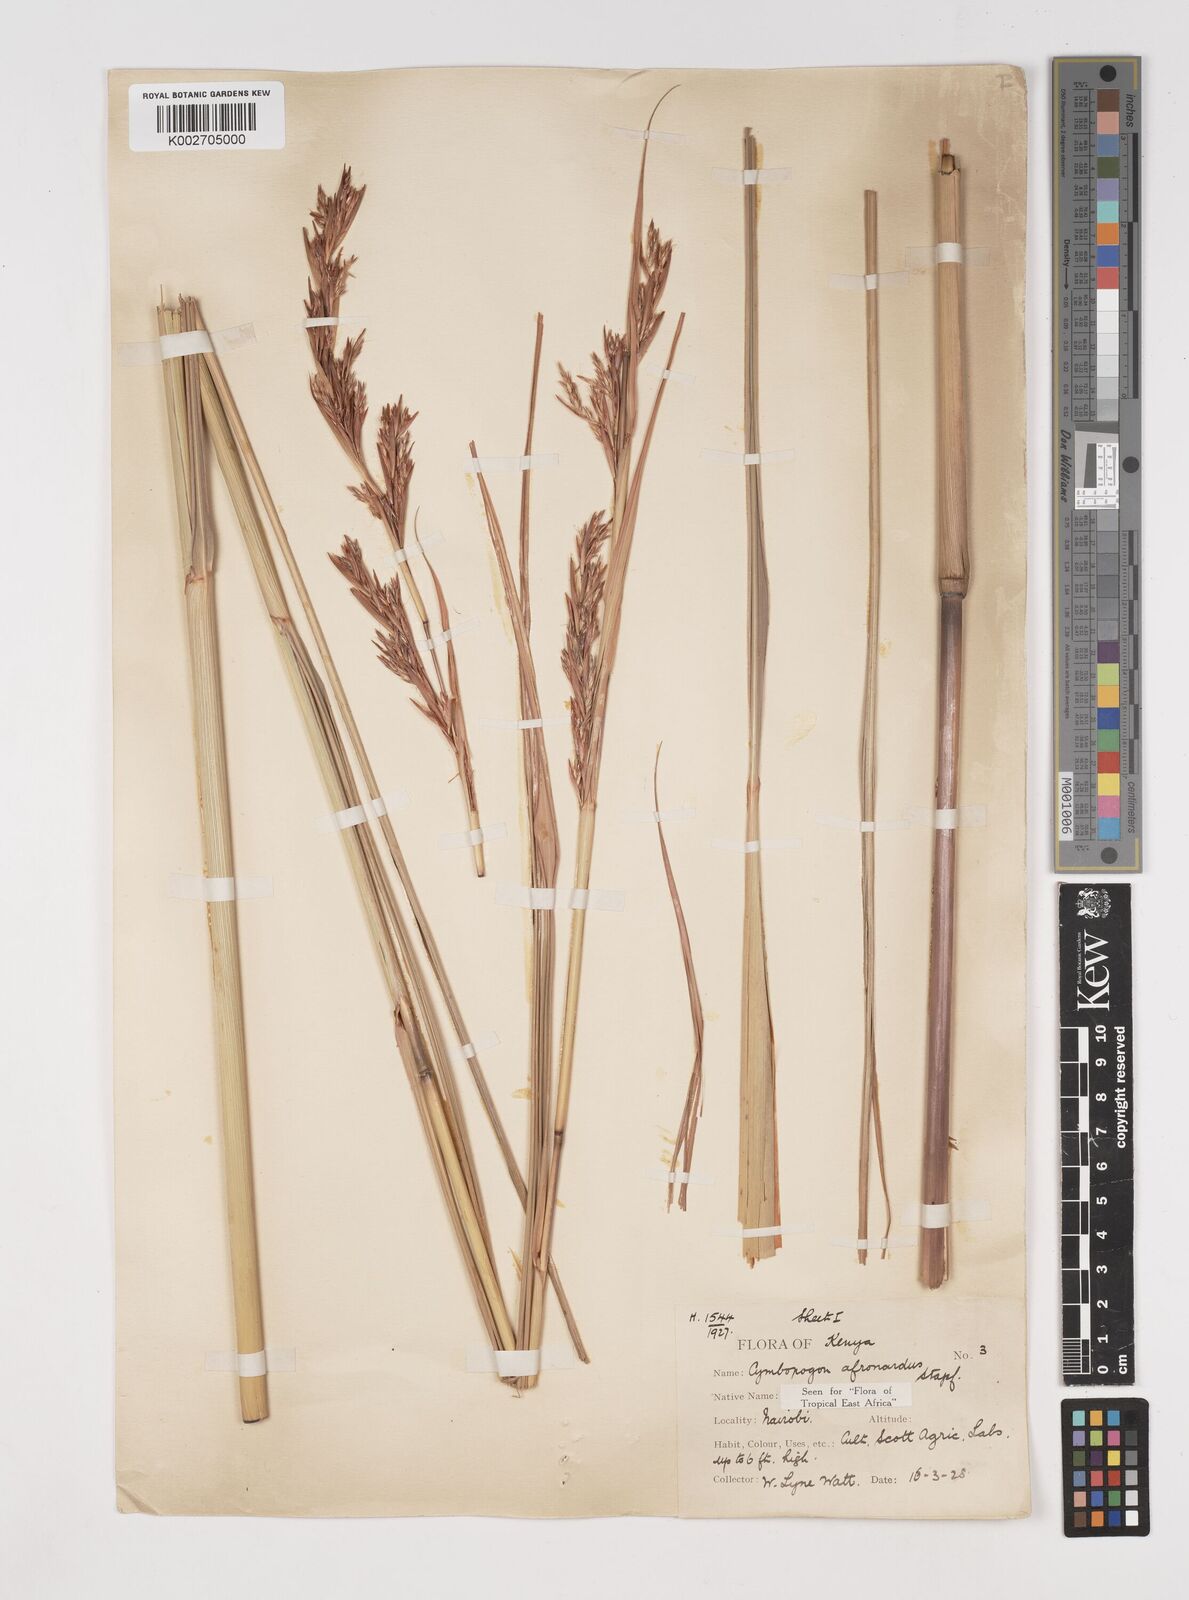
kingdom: Plantae
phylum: Tracheophyta
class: Liliopsida
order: Poales
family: Poaceae
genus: Cymbopogon
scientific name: Cymbopogon nardus
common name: Giant turpentine grass
